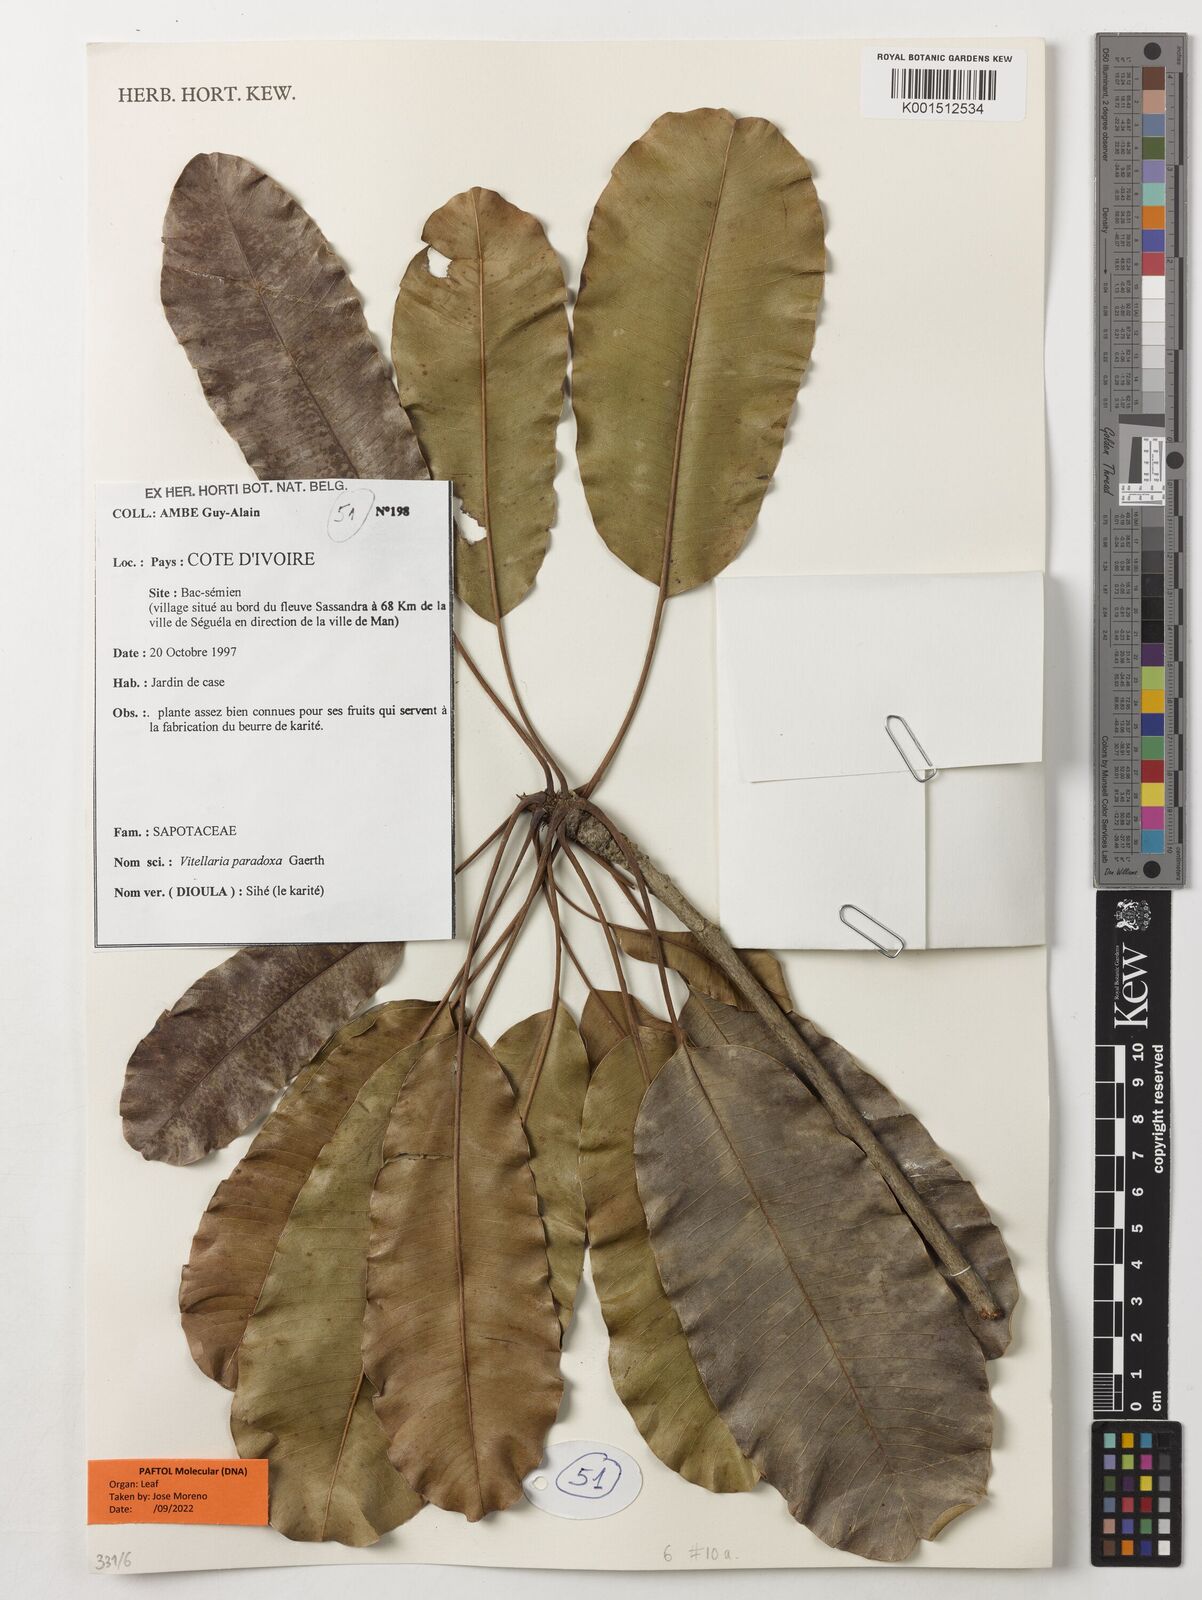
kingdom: Plantae
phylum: Tracheophyta
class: Magnoliopsida
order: Ericales
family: Sapotaceae
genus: Vitellaria
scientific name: Vitellaria paradoxa
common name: Shea butter tree
